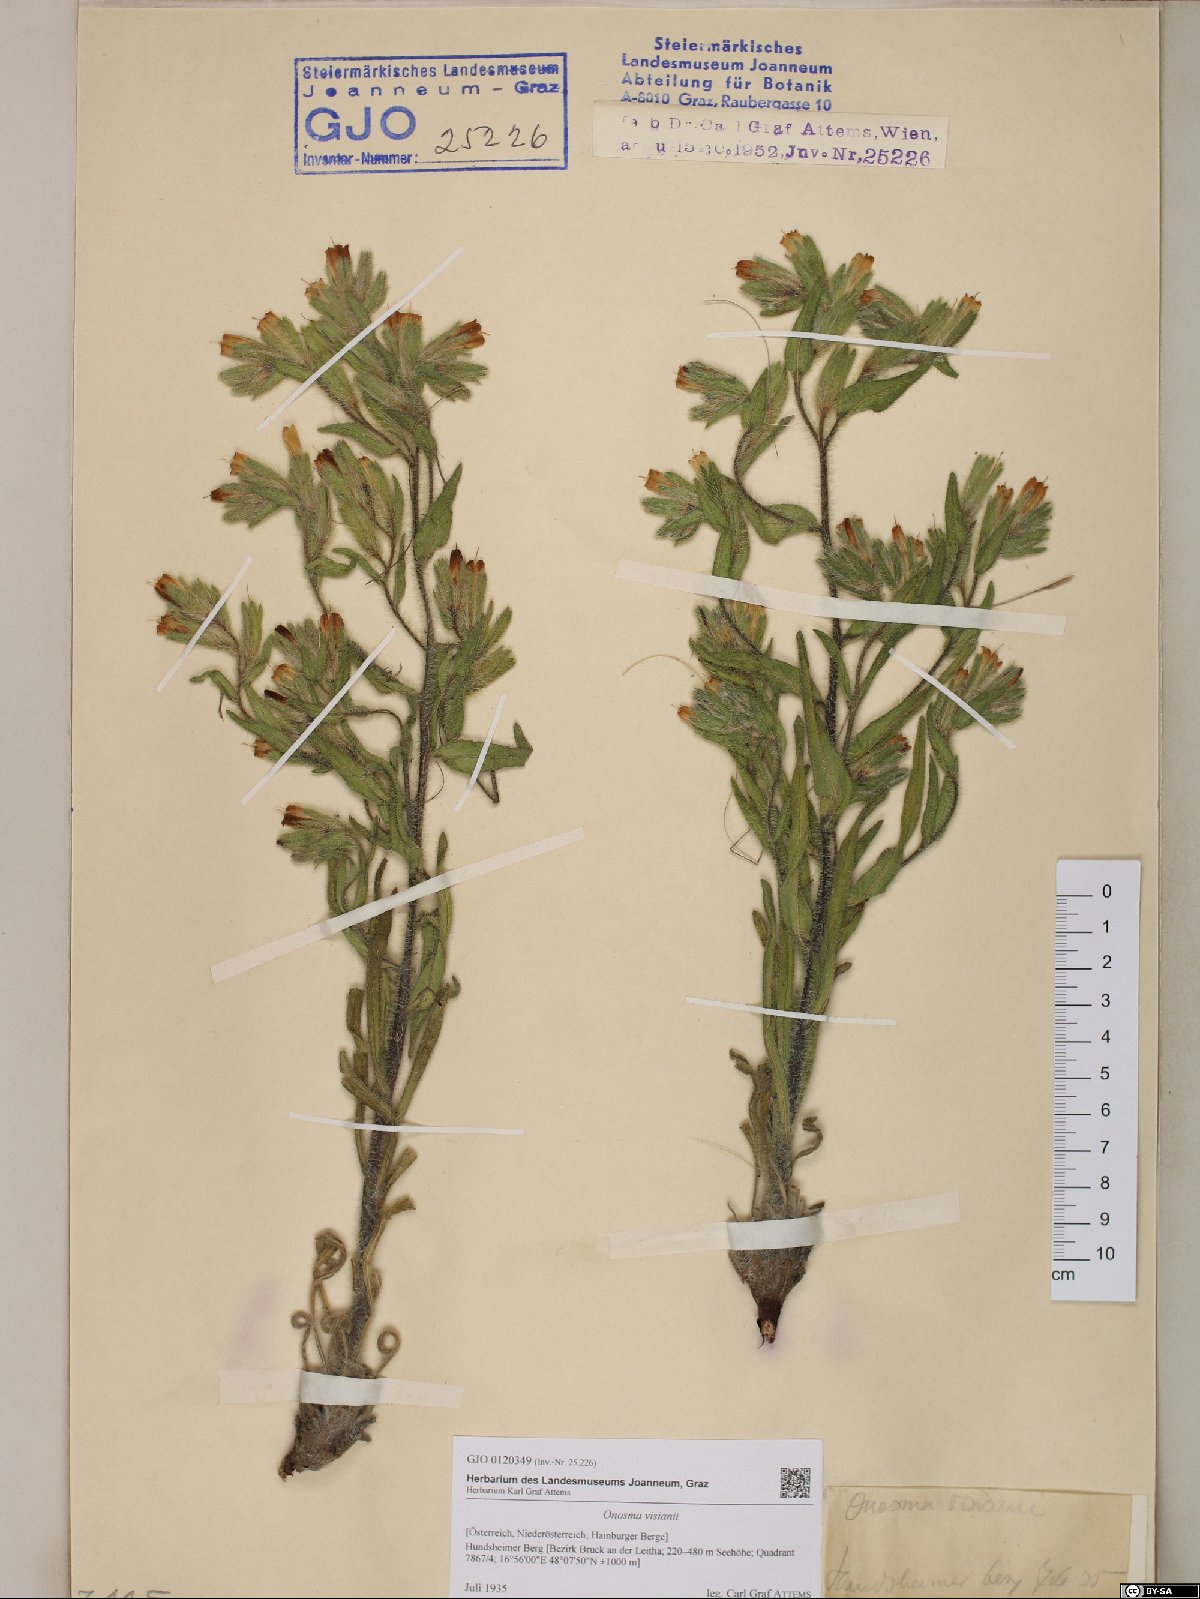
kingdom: Plantae
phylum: Tracheophyta
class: Magnoliopsida
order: Boraginales
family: Boraginaceae
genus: Onosma
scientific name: Onosma visianii
